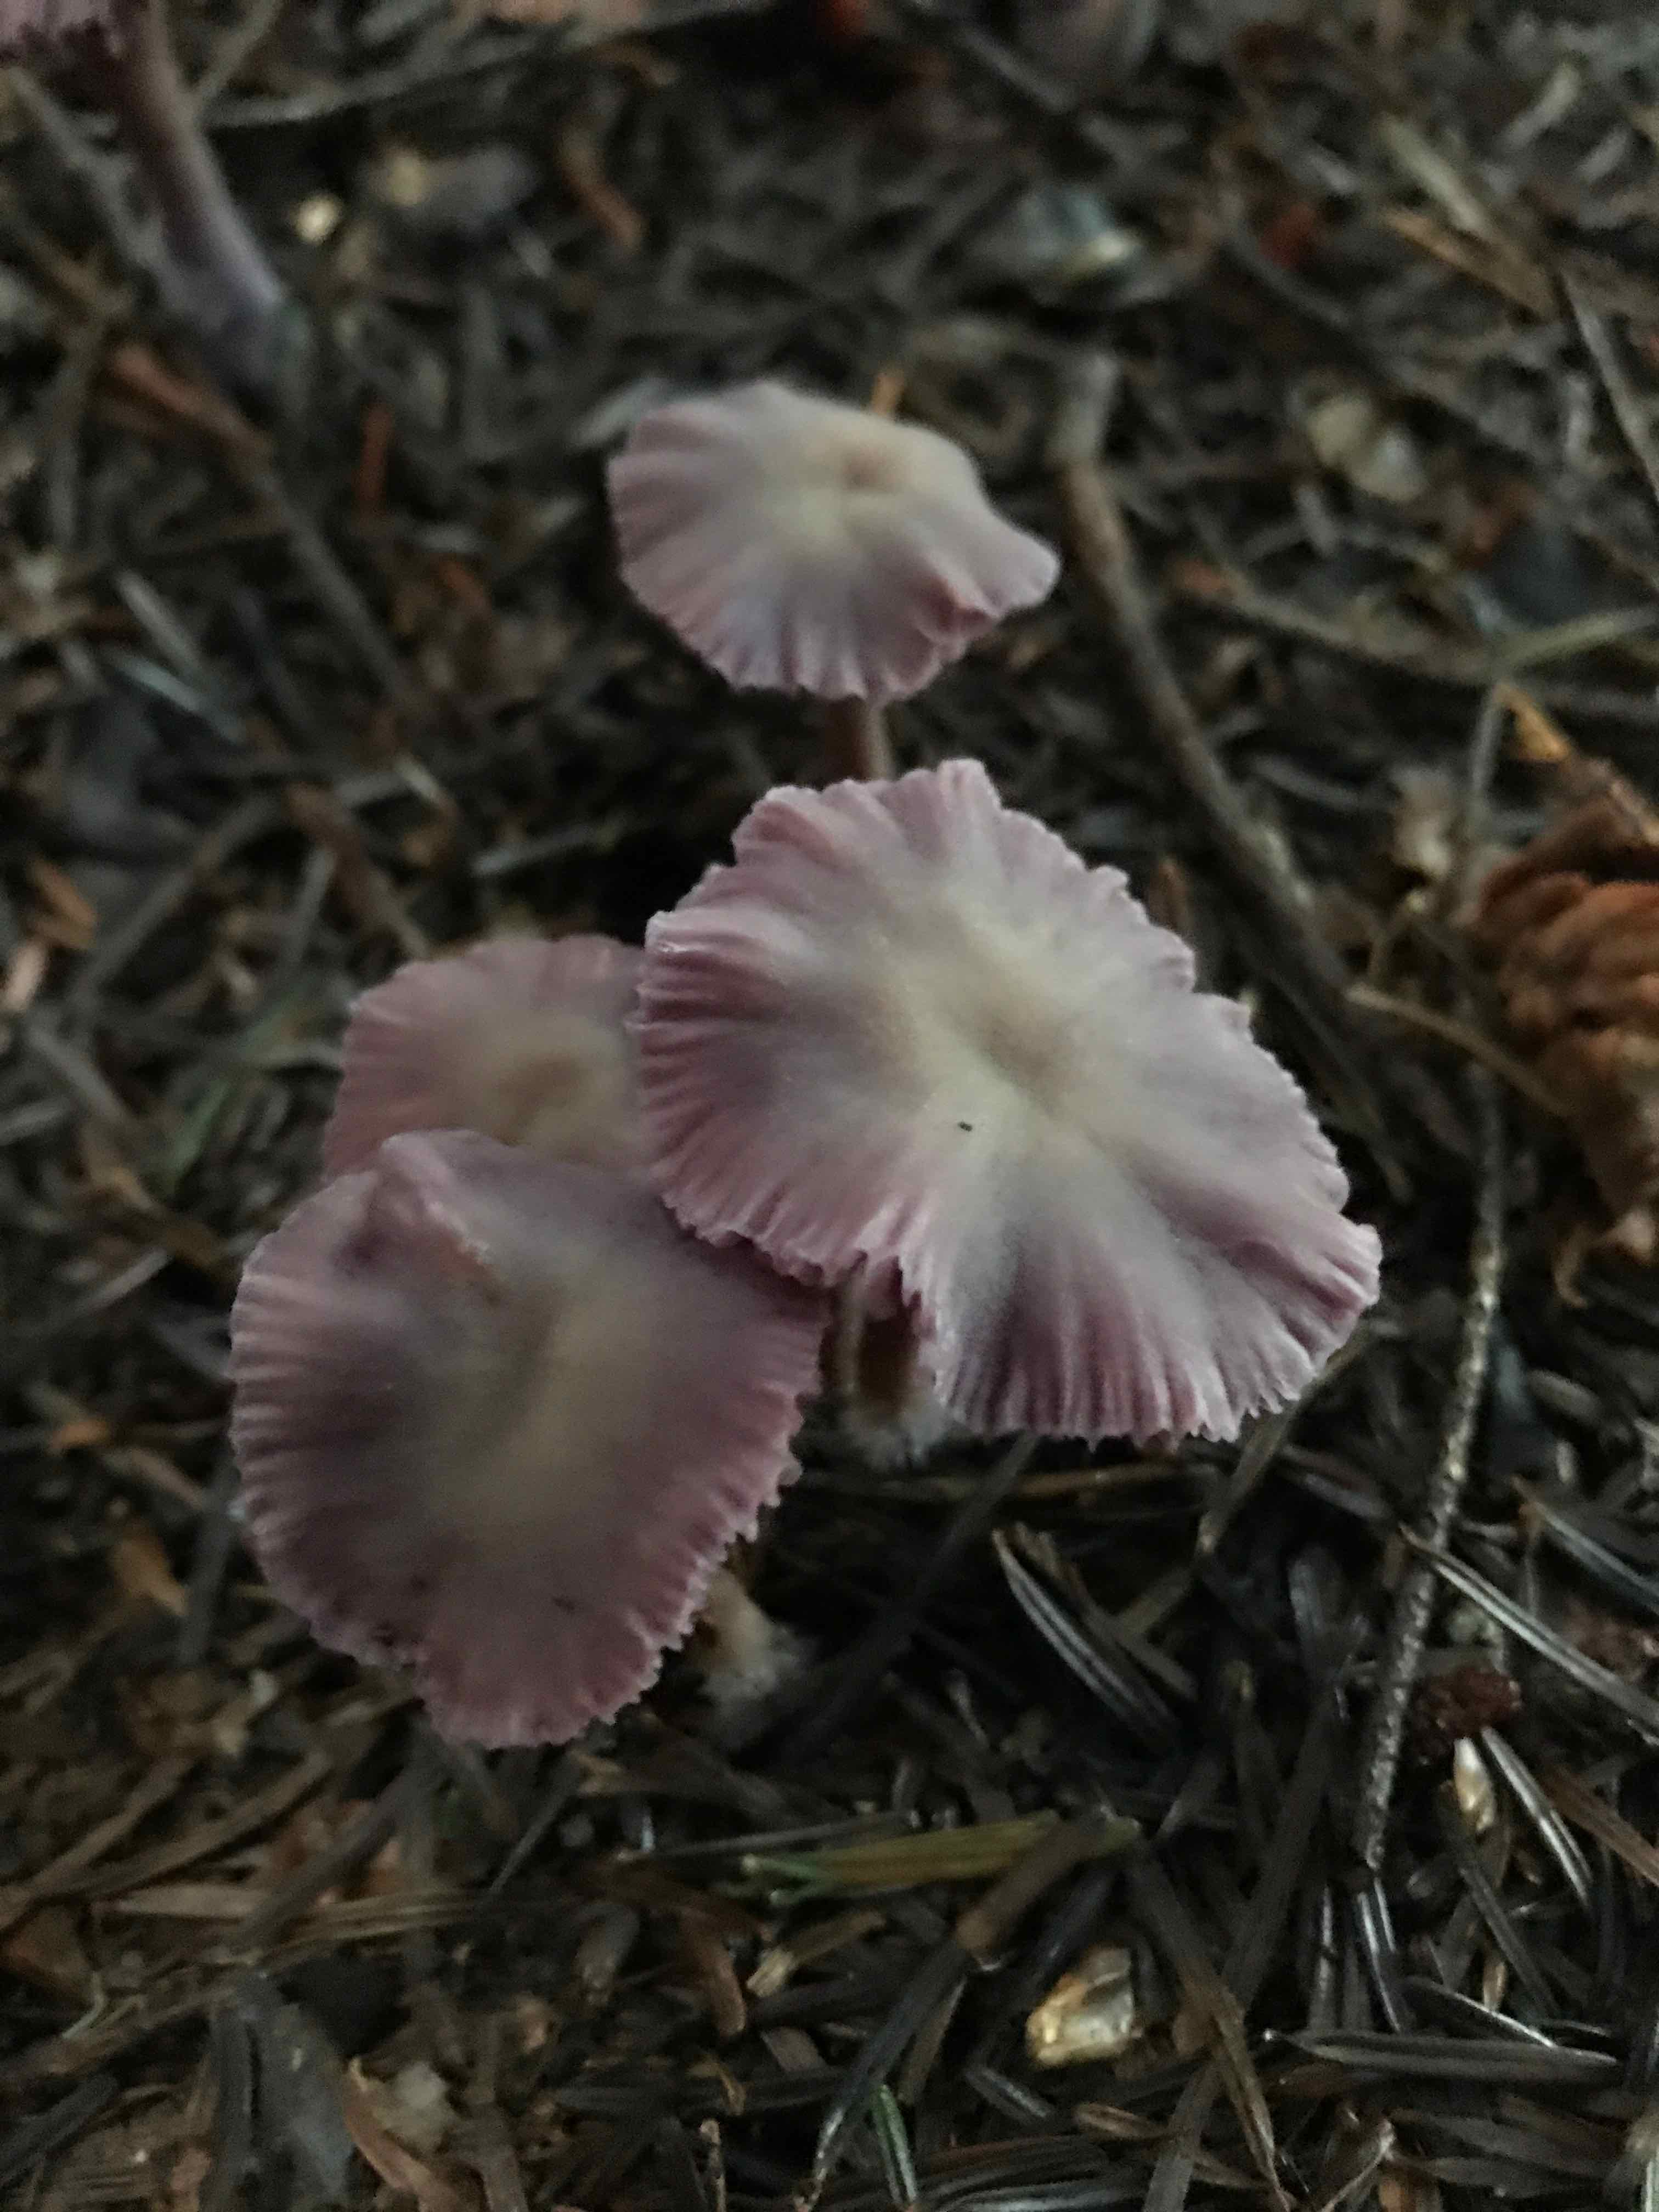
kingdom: Fungi
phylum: Basidiomycota
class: Agaricomycetes
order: Agaricales
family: Hydnangiaceae
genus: Laccaria
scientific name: Laccaria amethystina
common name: violet ametysthat
